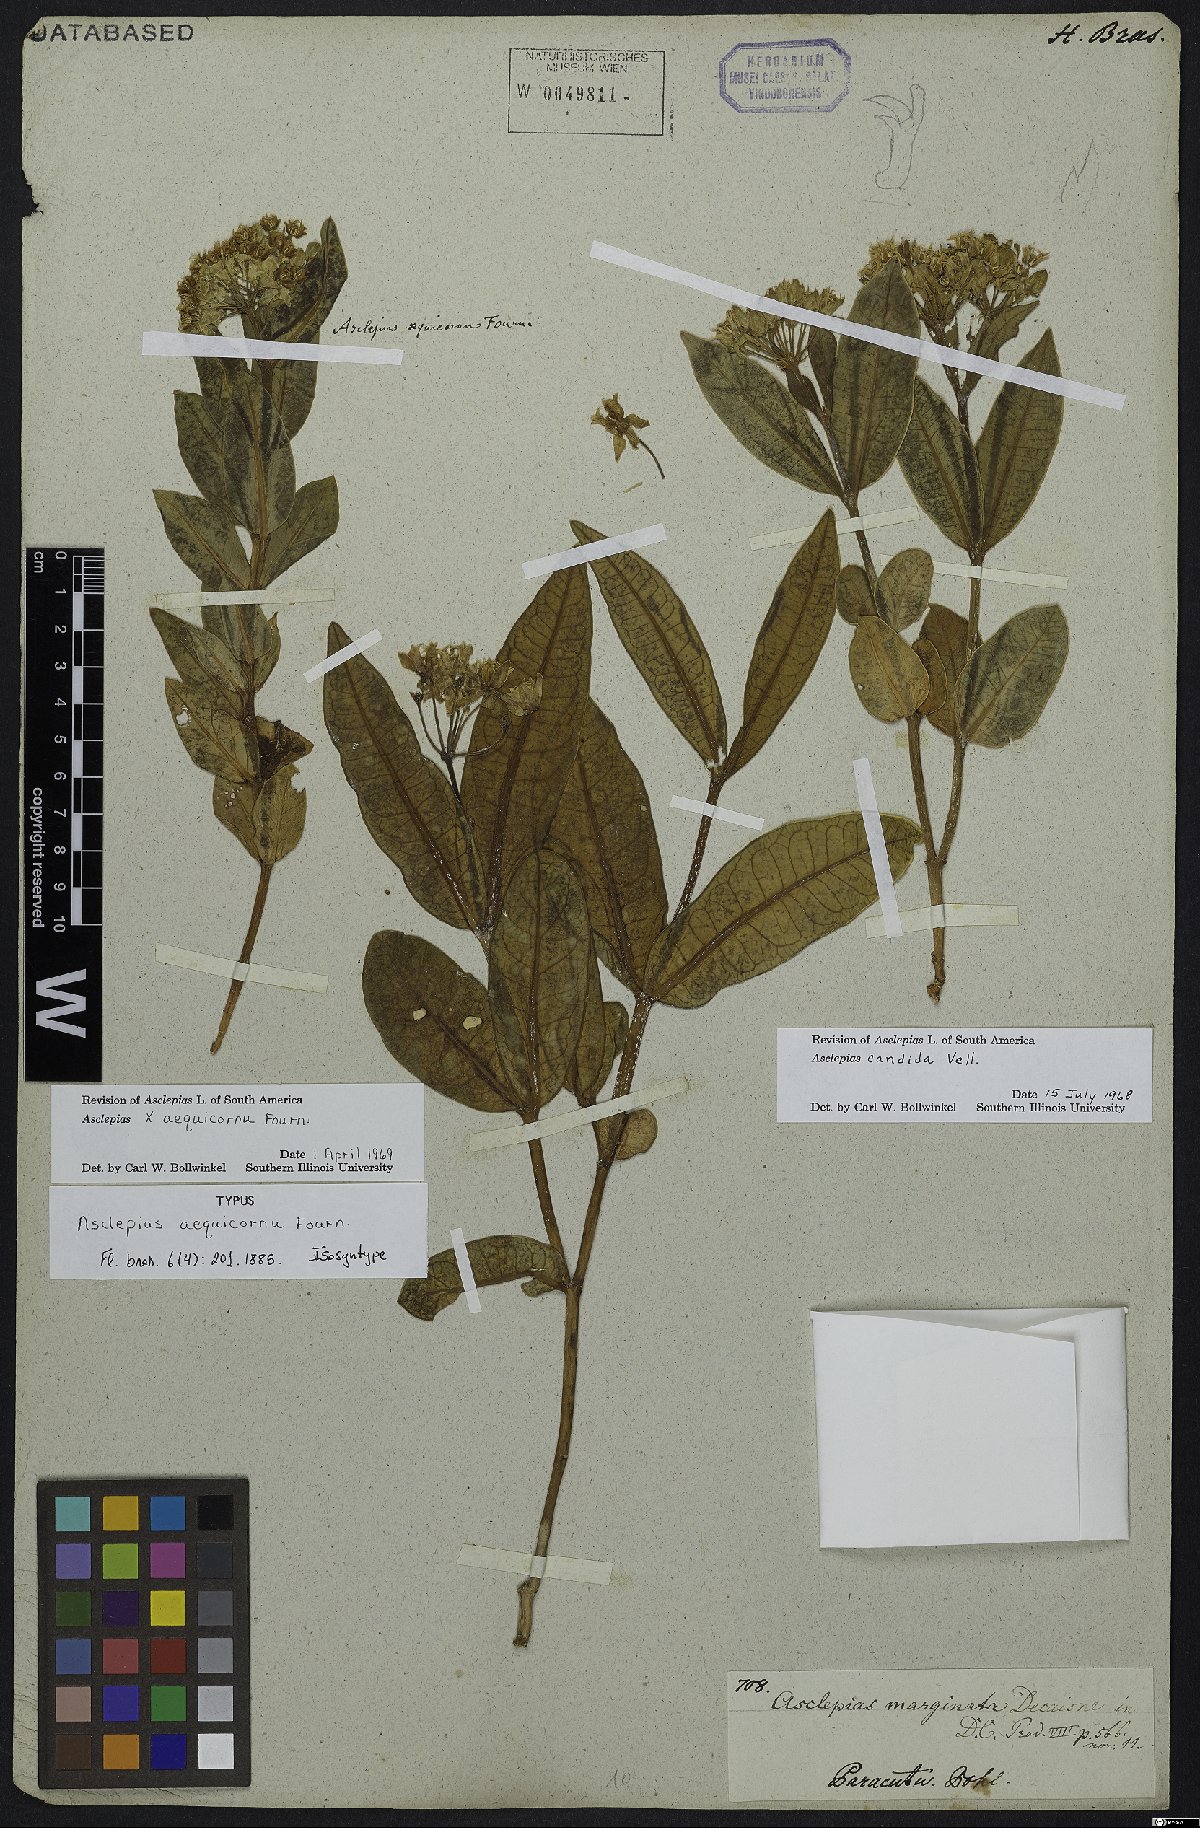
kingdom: Plantae
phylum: Tracheophyta
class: Magnoliopsida
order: Gentianales
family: Apocynaceae
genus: Asclepias
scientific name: Asclepias aequicornu
